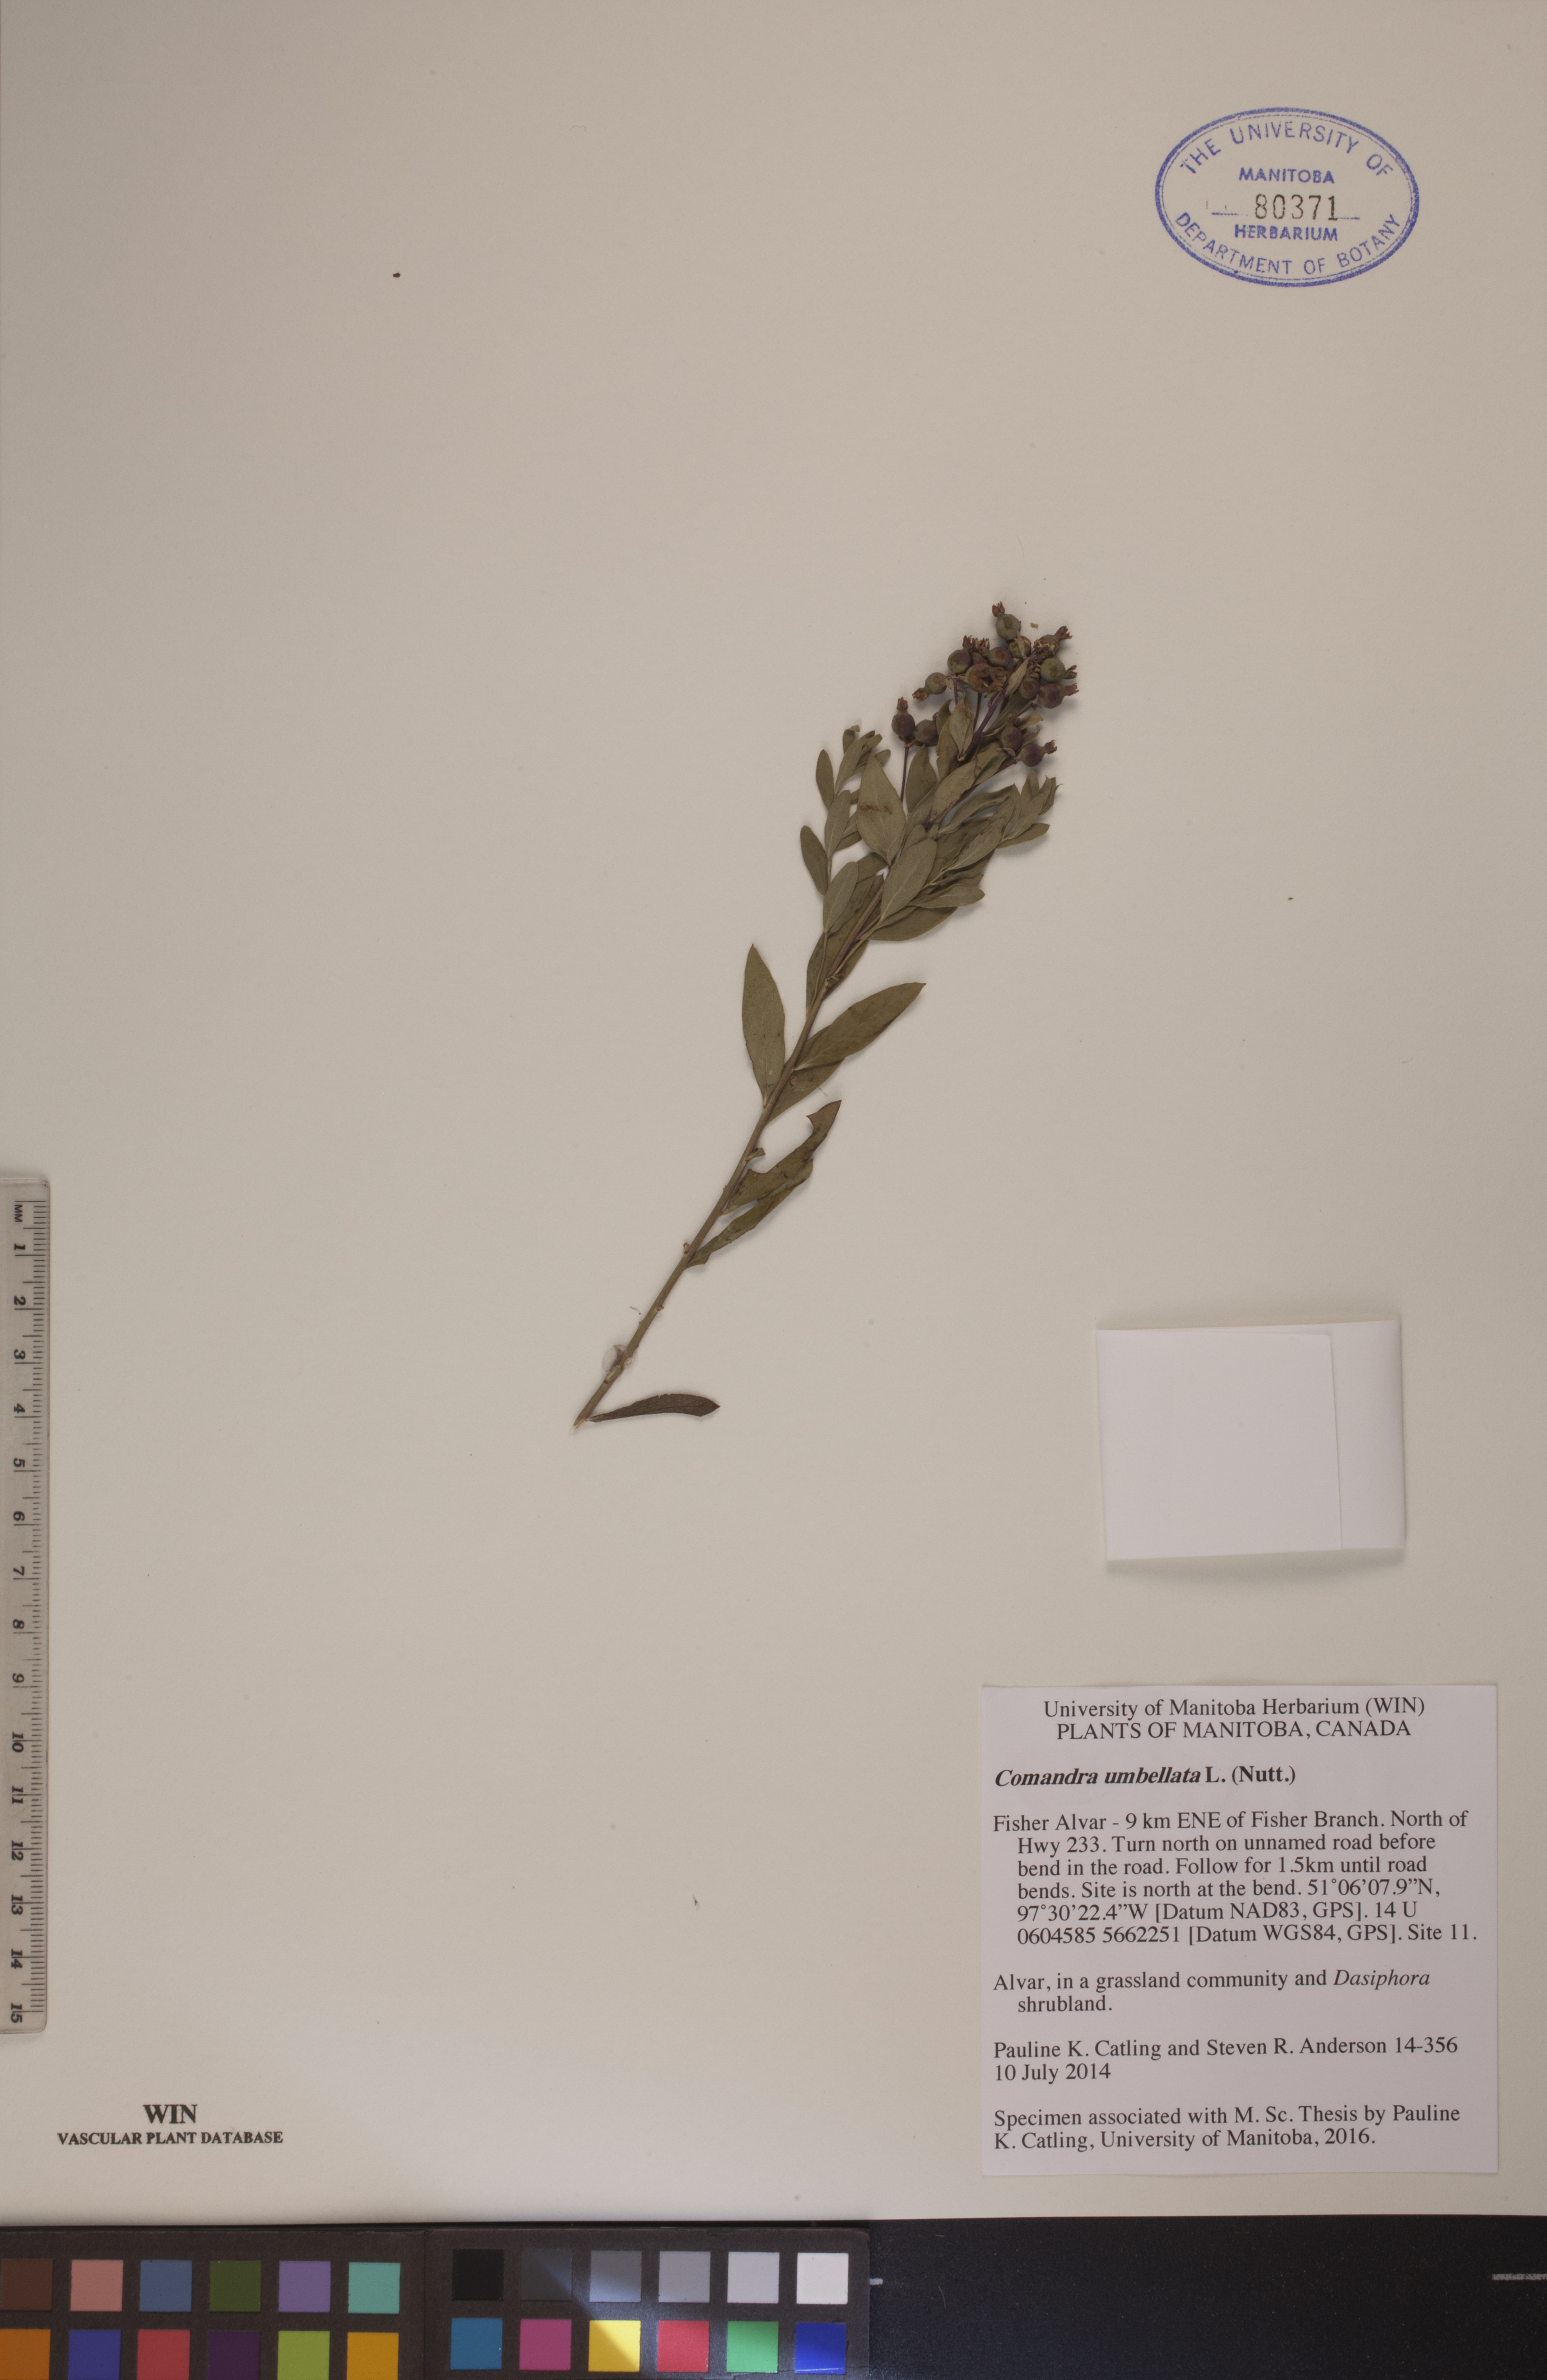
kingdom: Plantae
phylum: Tracheophyta
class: Magnoliopsida
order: Santalales
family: Comandraceae
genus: Comandra
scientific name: Comandra umbellata
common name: Bastard toadflax
